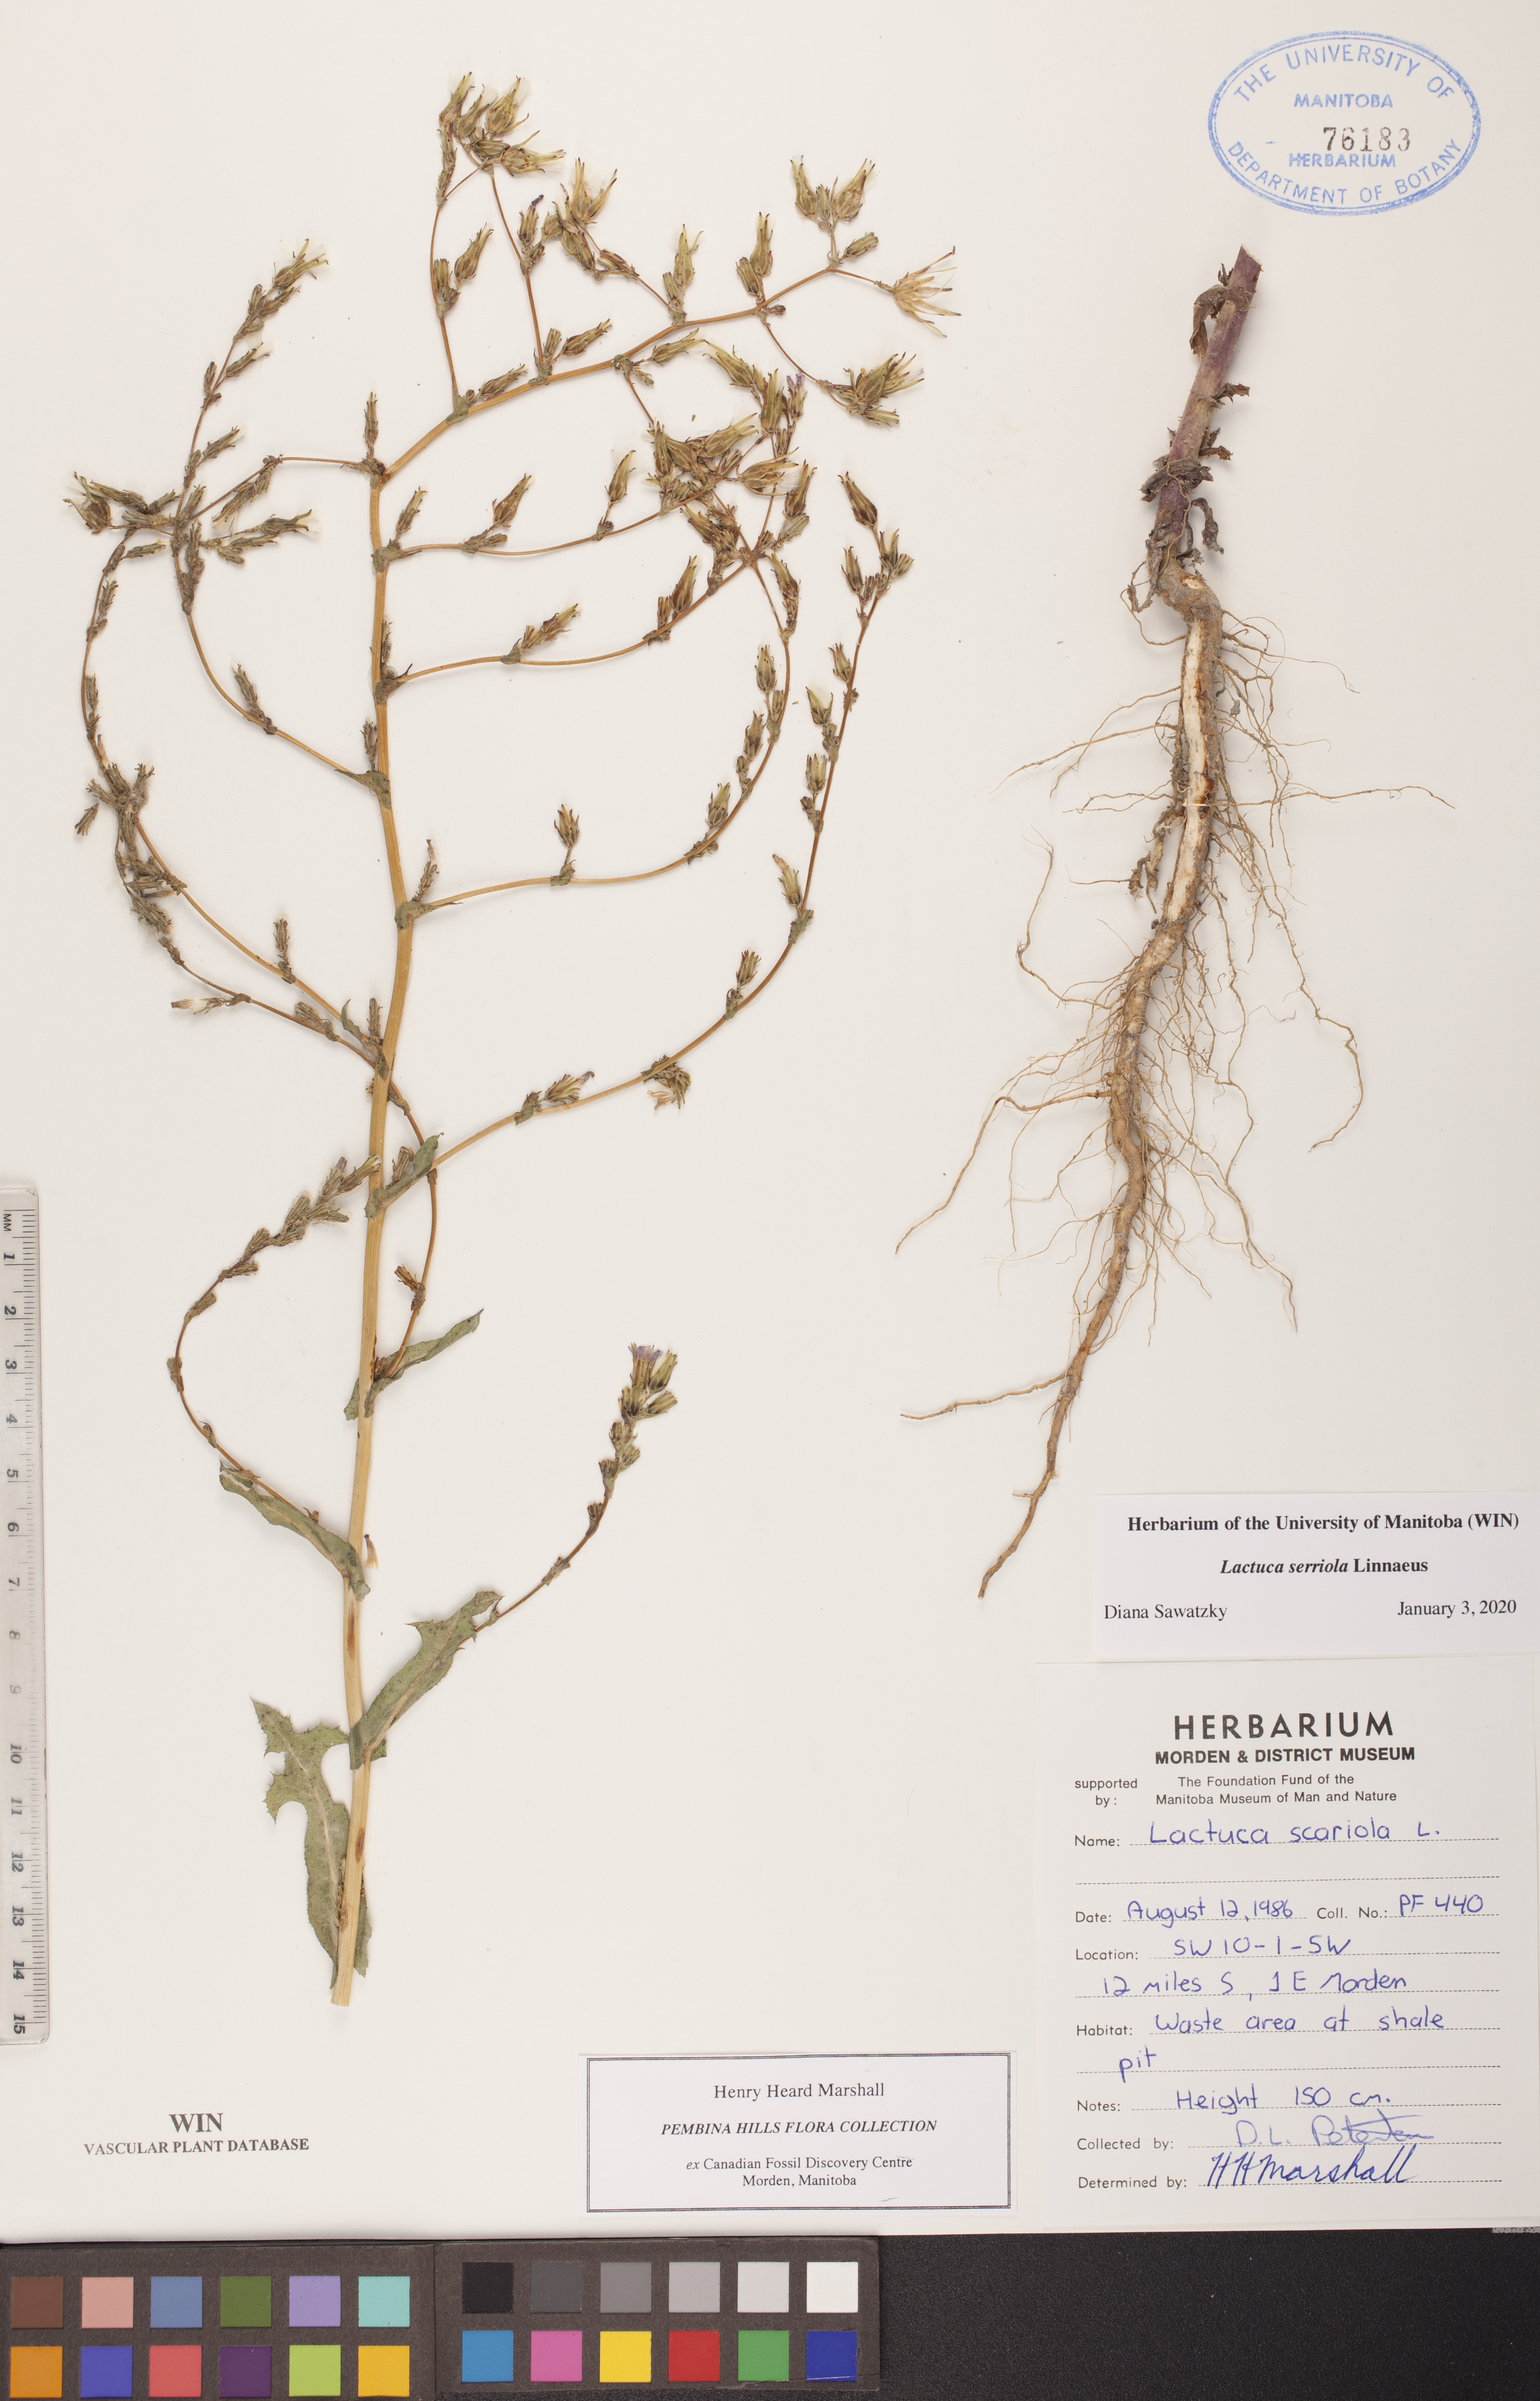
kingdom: Plantae
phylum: Tracheophyta
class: Magnoliopsida
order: Asterales
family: Asteraceae
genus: Lactuca
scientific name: Lactuca serriola
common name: Prickly lettuce
